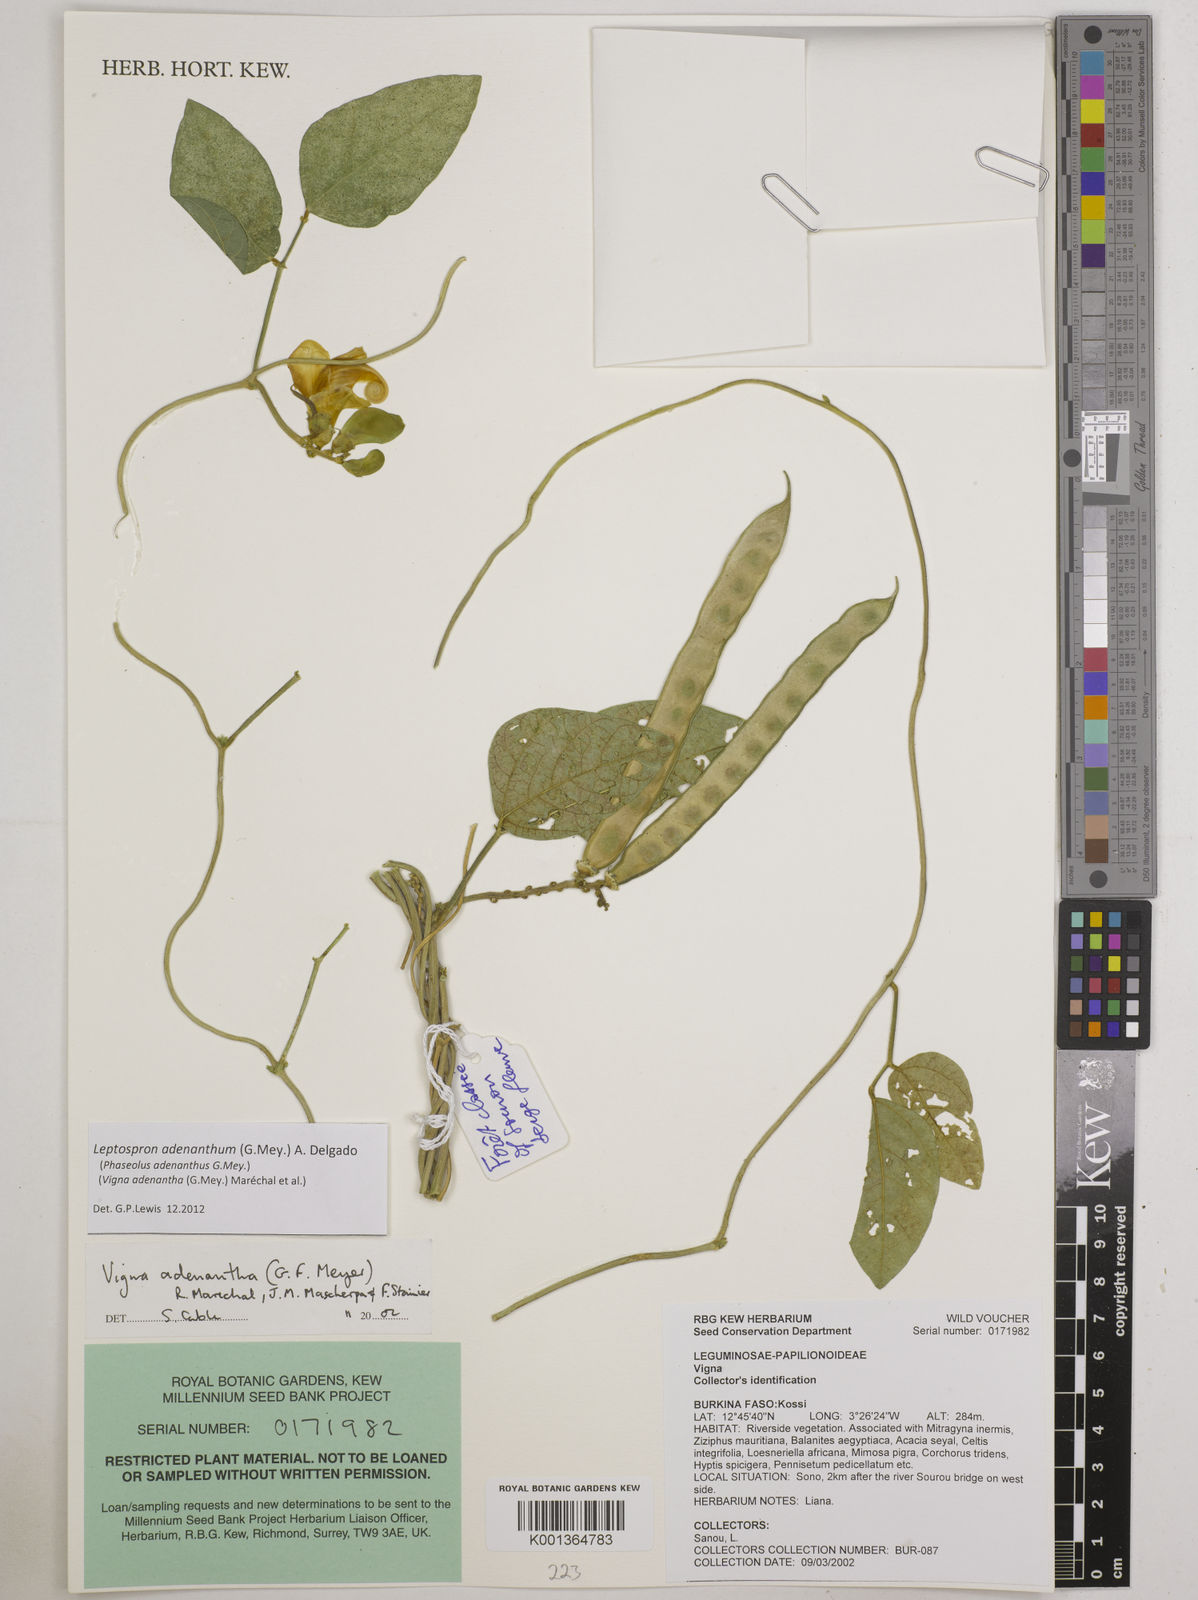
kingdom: Plantae
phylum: Tracheophyta
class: Magnoliopsida
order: Fabales
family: Fabaceae
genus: Leptospron
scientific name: Leptospron adenanthum
